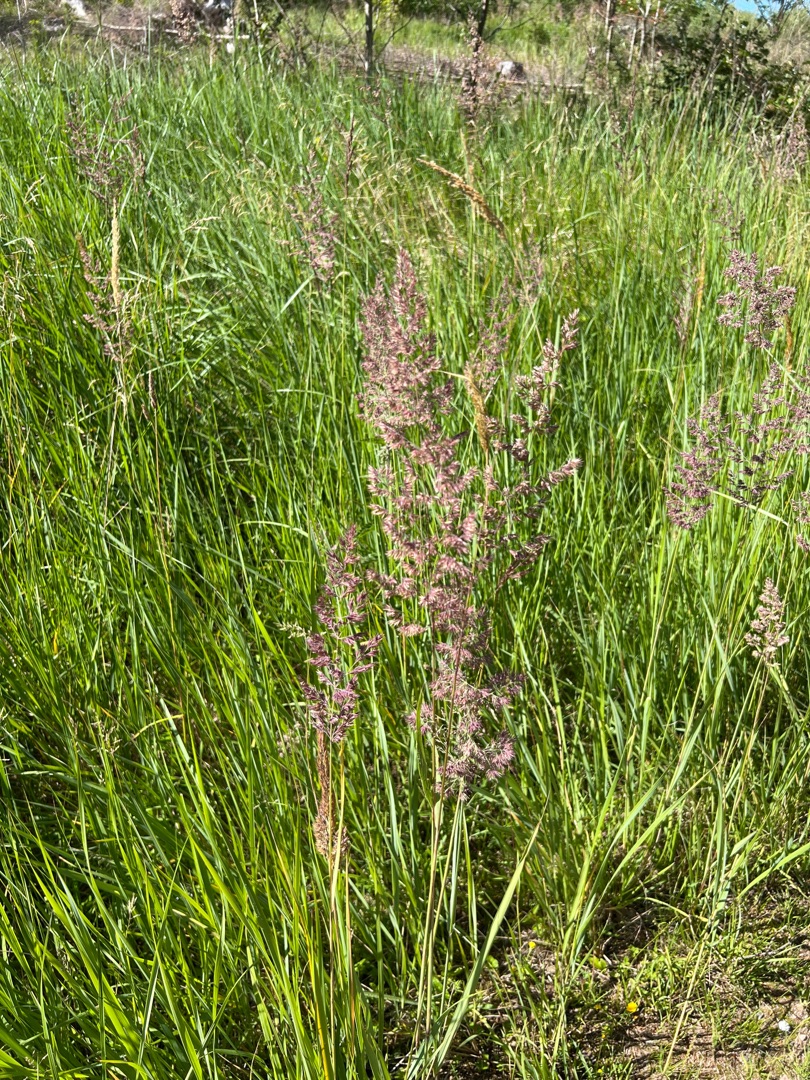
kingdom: Plantae
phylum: Tracheophyta
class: Liliopsida
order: Poales
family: Poaceae
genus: Calamagrostis
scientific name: Calamagrostis epigejos
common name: Bjerg-rørhvene
